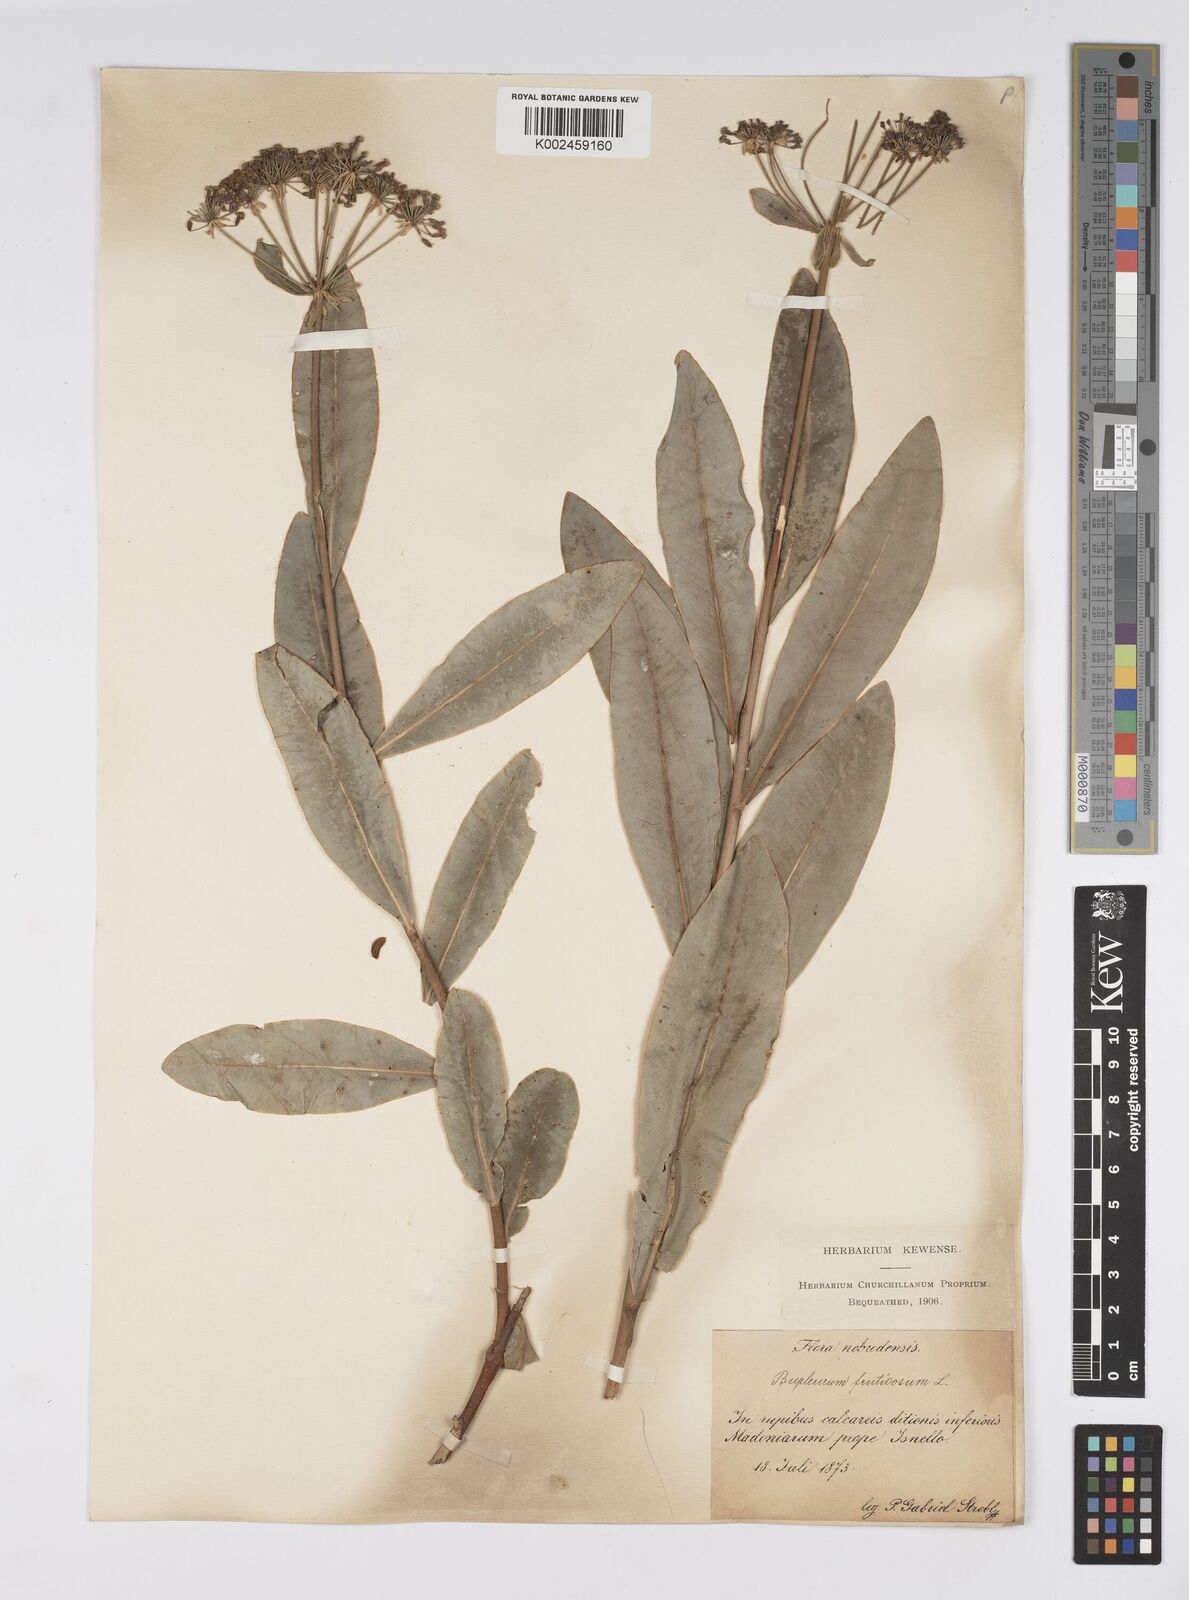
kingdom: Plantae
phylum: Tracheophyta
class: Magnoliopsida
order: Apiales
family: Apiaceae
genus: Bupleurum
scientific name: Bupleurum fruticosum
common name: Shrubby hare's-ear
